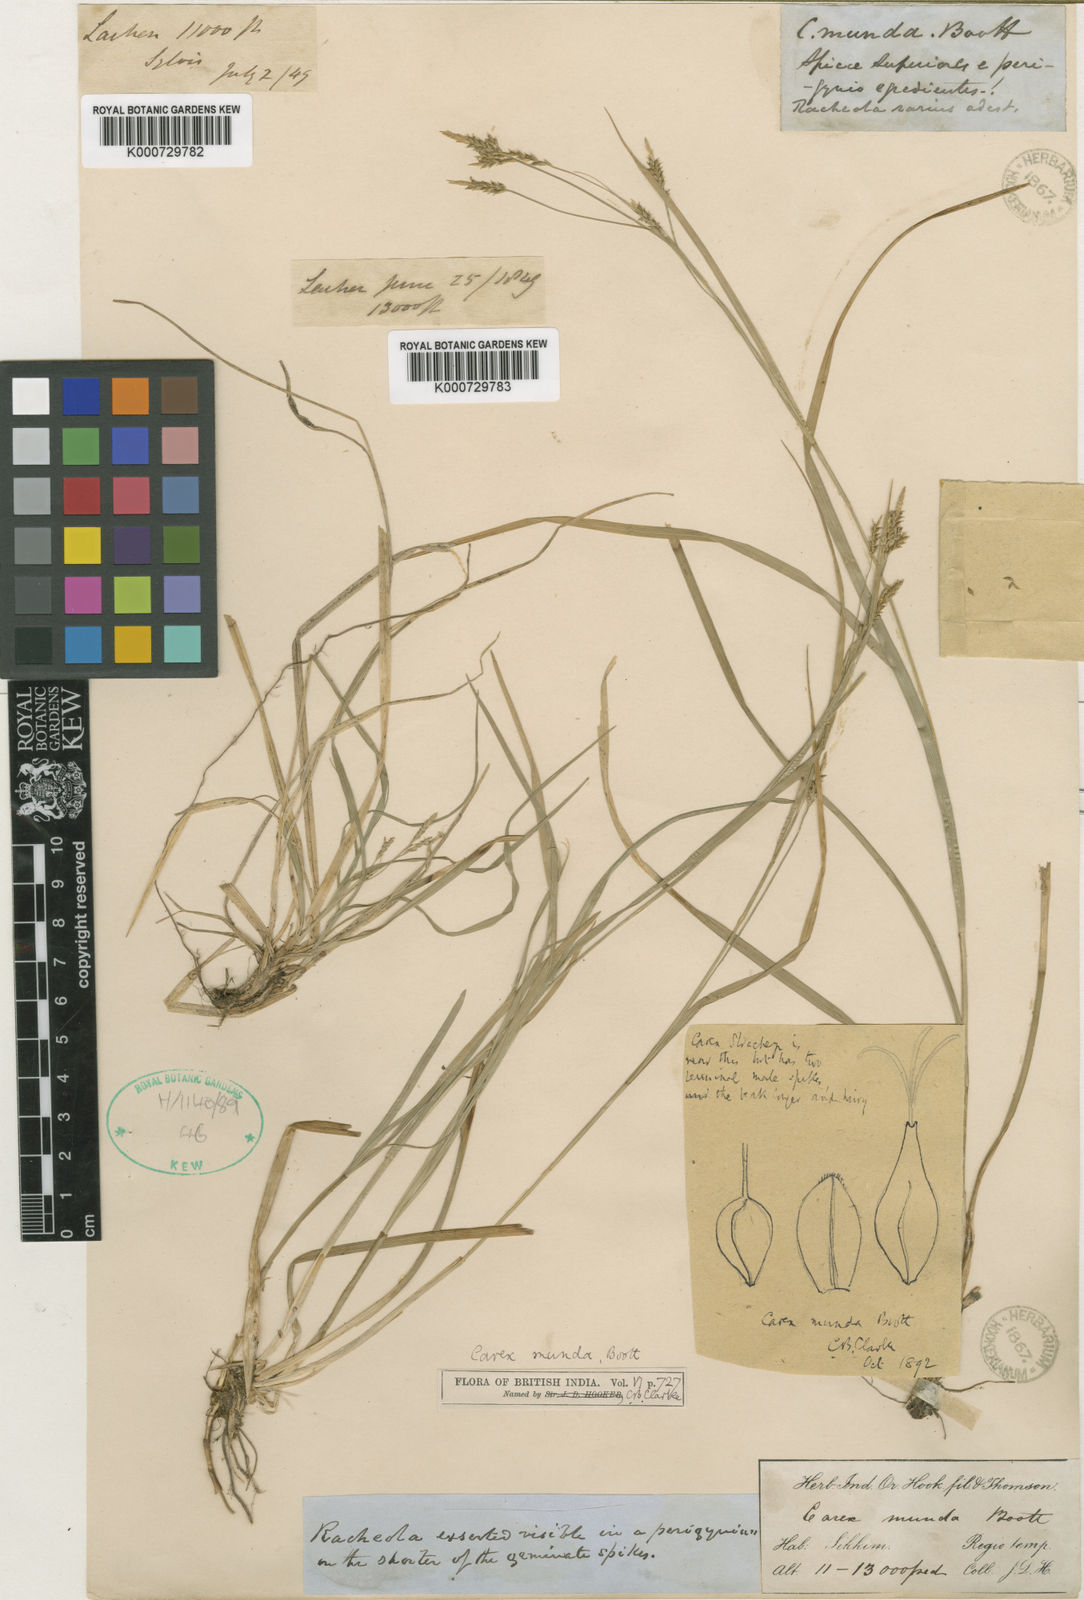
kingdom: Plantae
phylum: Tracheophyta
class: Liliopsida
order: Poales
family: Cyperaceae
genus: Carex
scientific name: Carex munda
